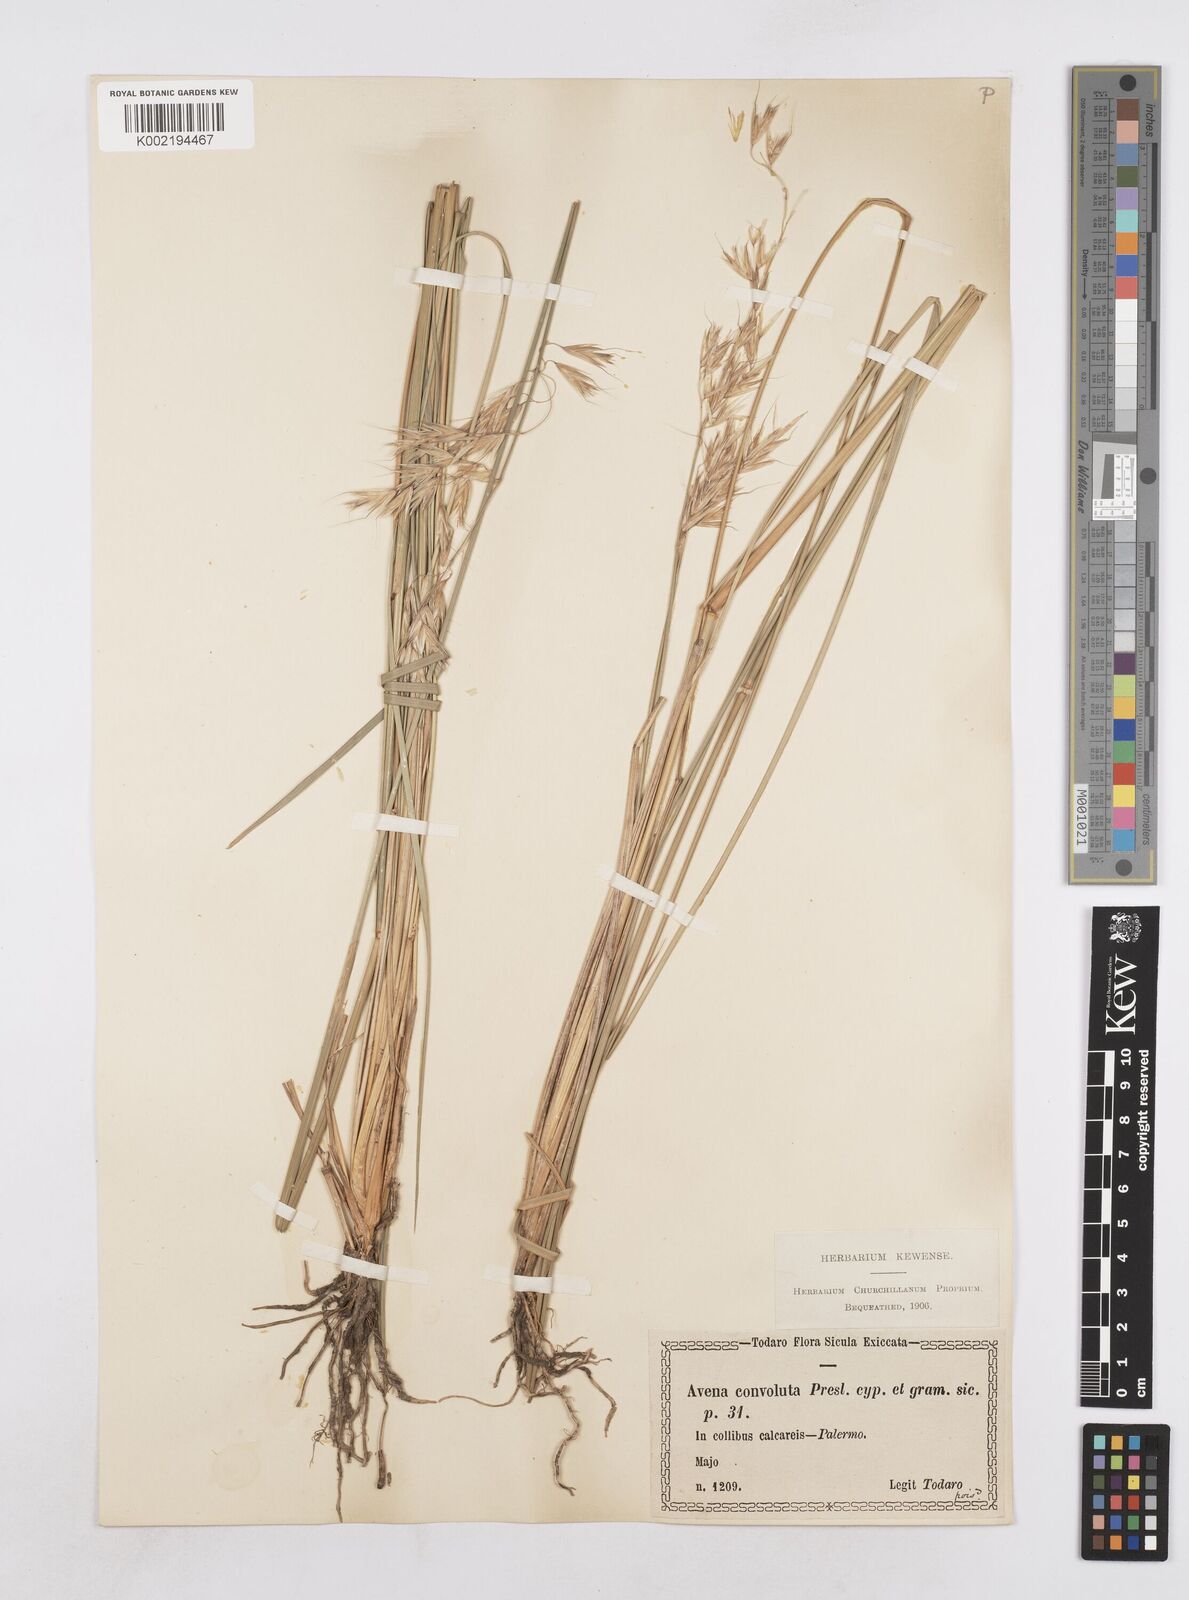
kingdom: Plantae
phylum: Tracheophyta
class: Liliopsida
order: Poales
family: Poaceae
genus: Helictotrichon
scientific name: Helictotrichon convolutum
